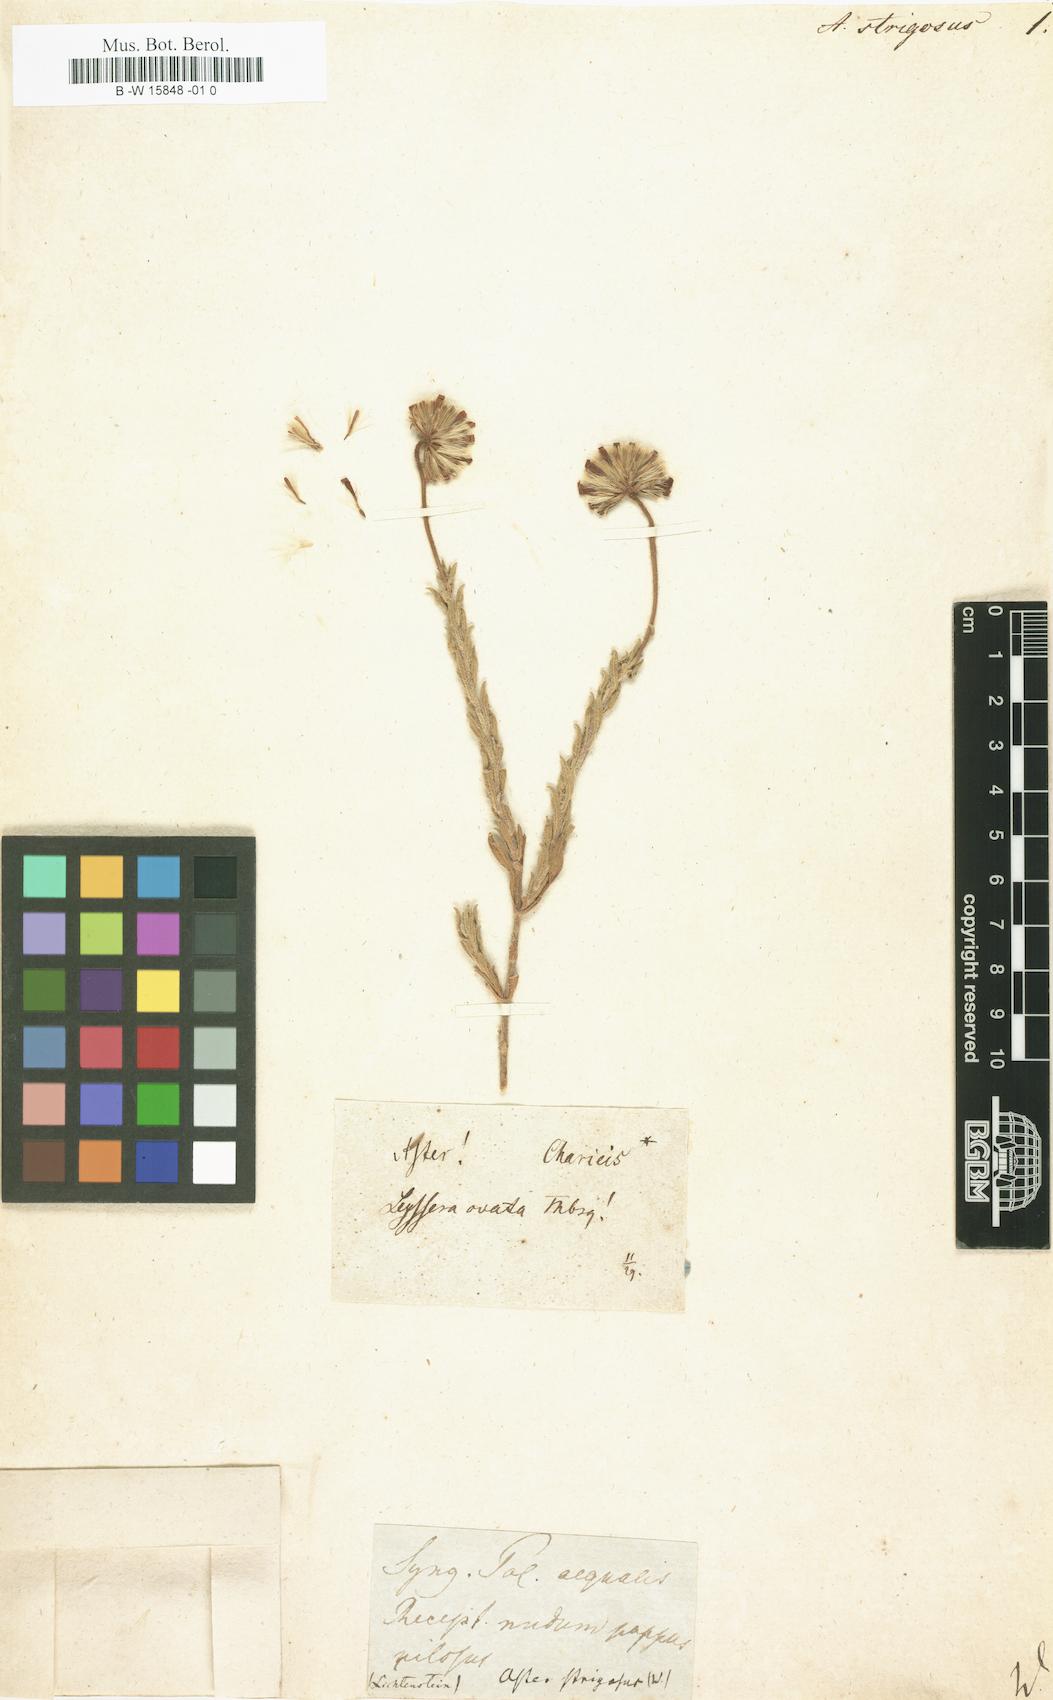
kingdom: Plantae
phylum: Tracheophyta
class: Magnoliopsida
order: Asterales
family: Asteraceae
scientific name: Asteraceae
